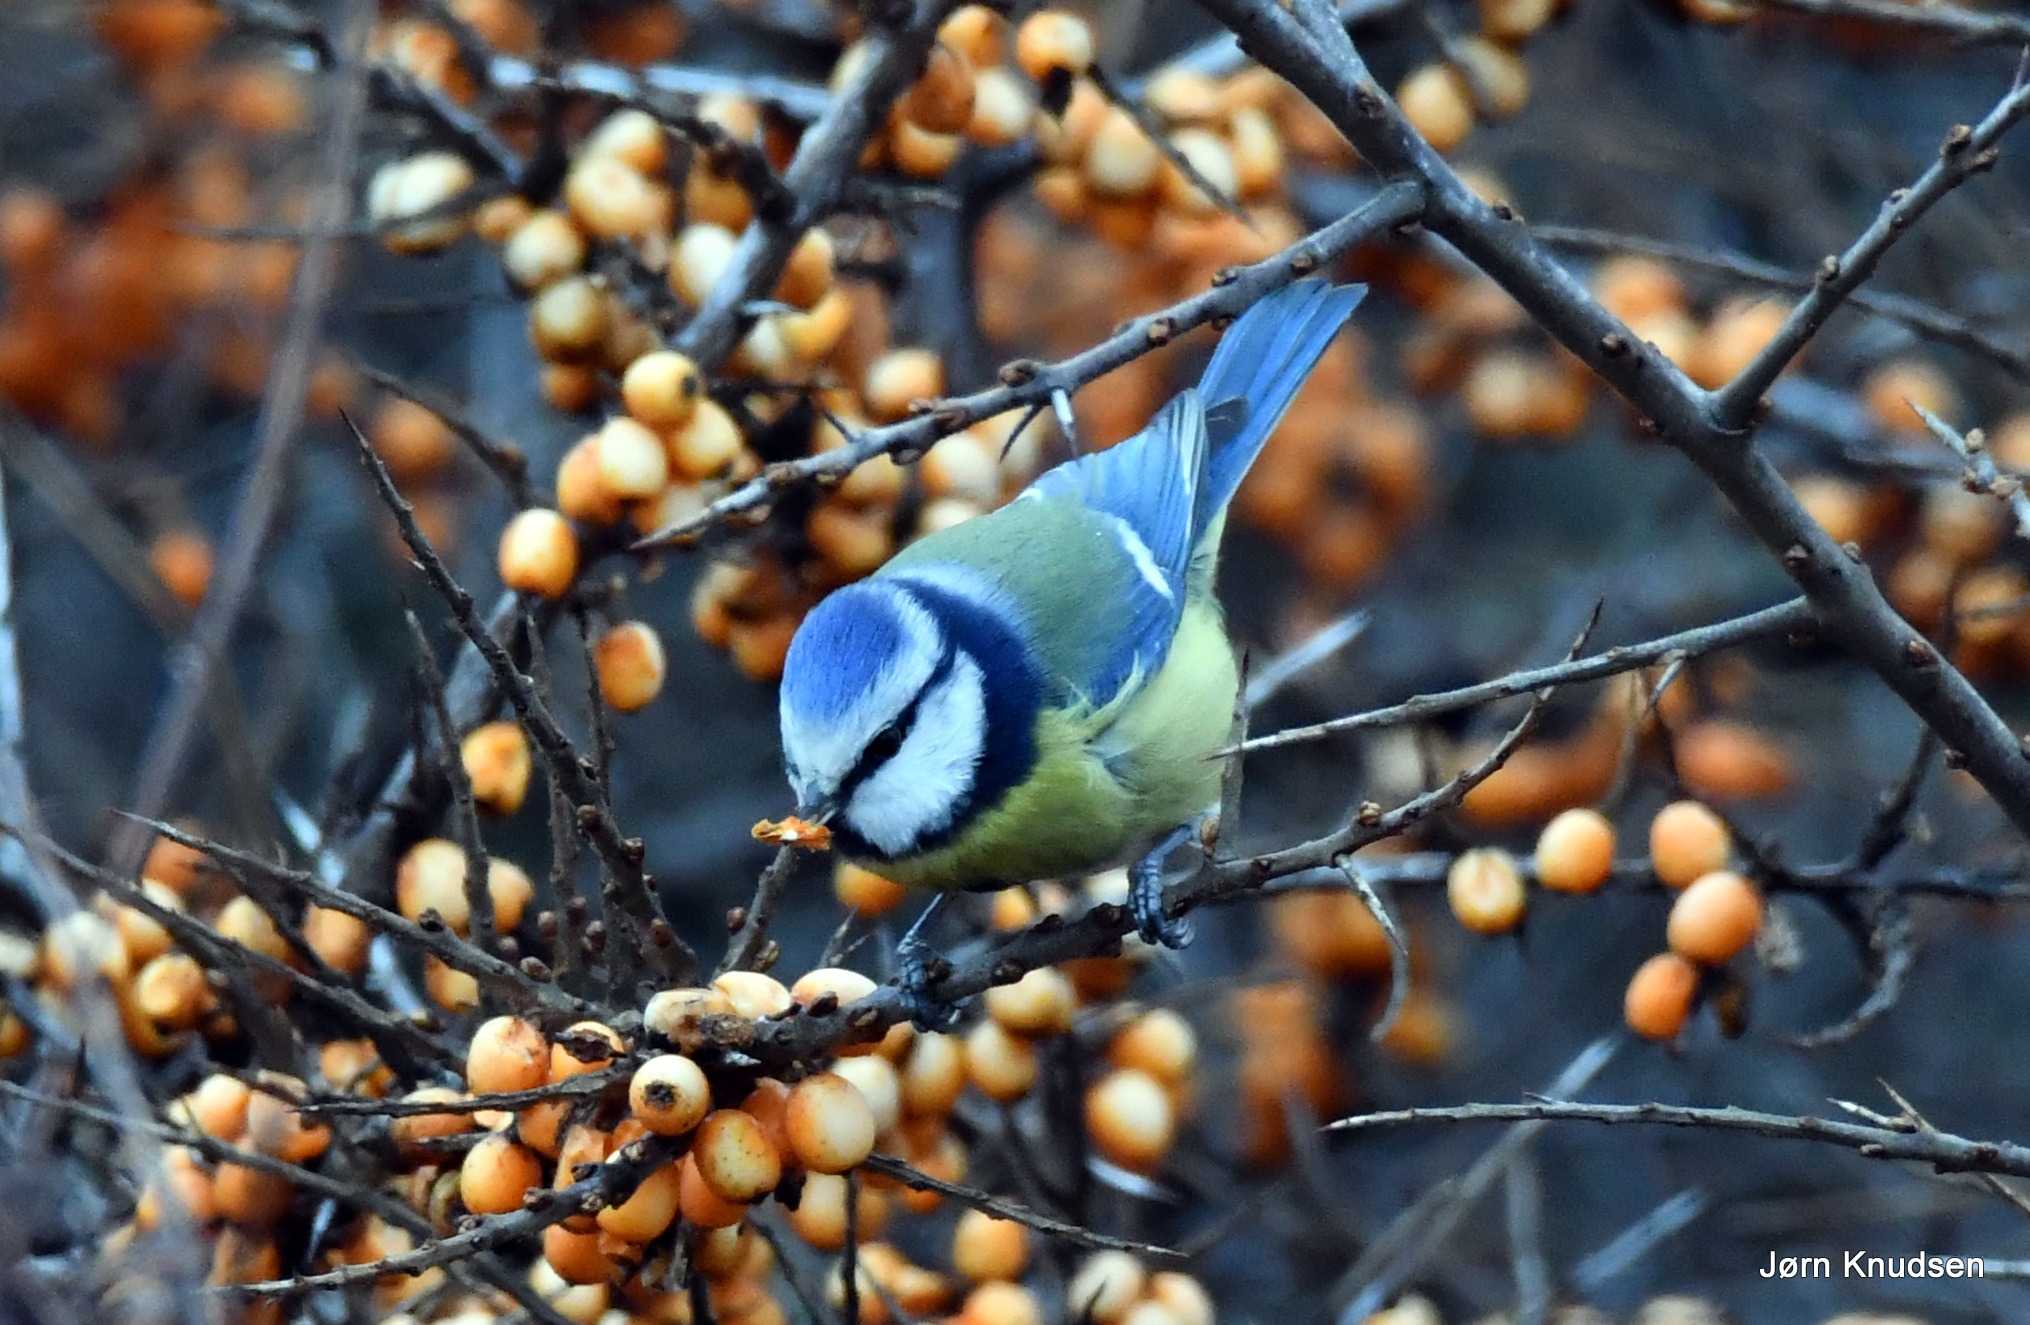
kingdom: Animalia
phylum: Chordata
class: Aves
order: Passeriformes
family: Paridae
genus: Cyanistes
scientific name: Cyanistes caeruleus
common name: Blåmejse
